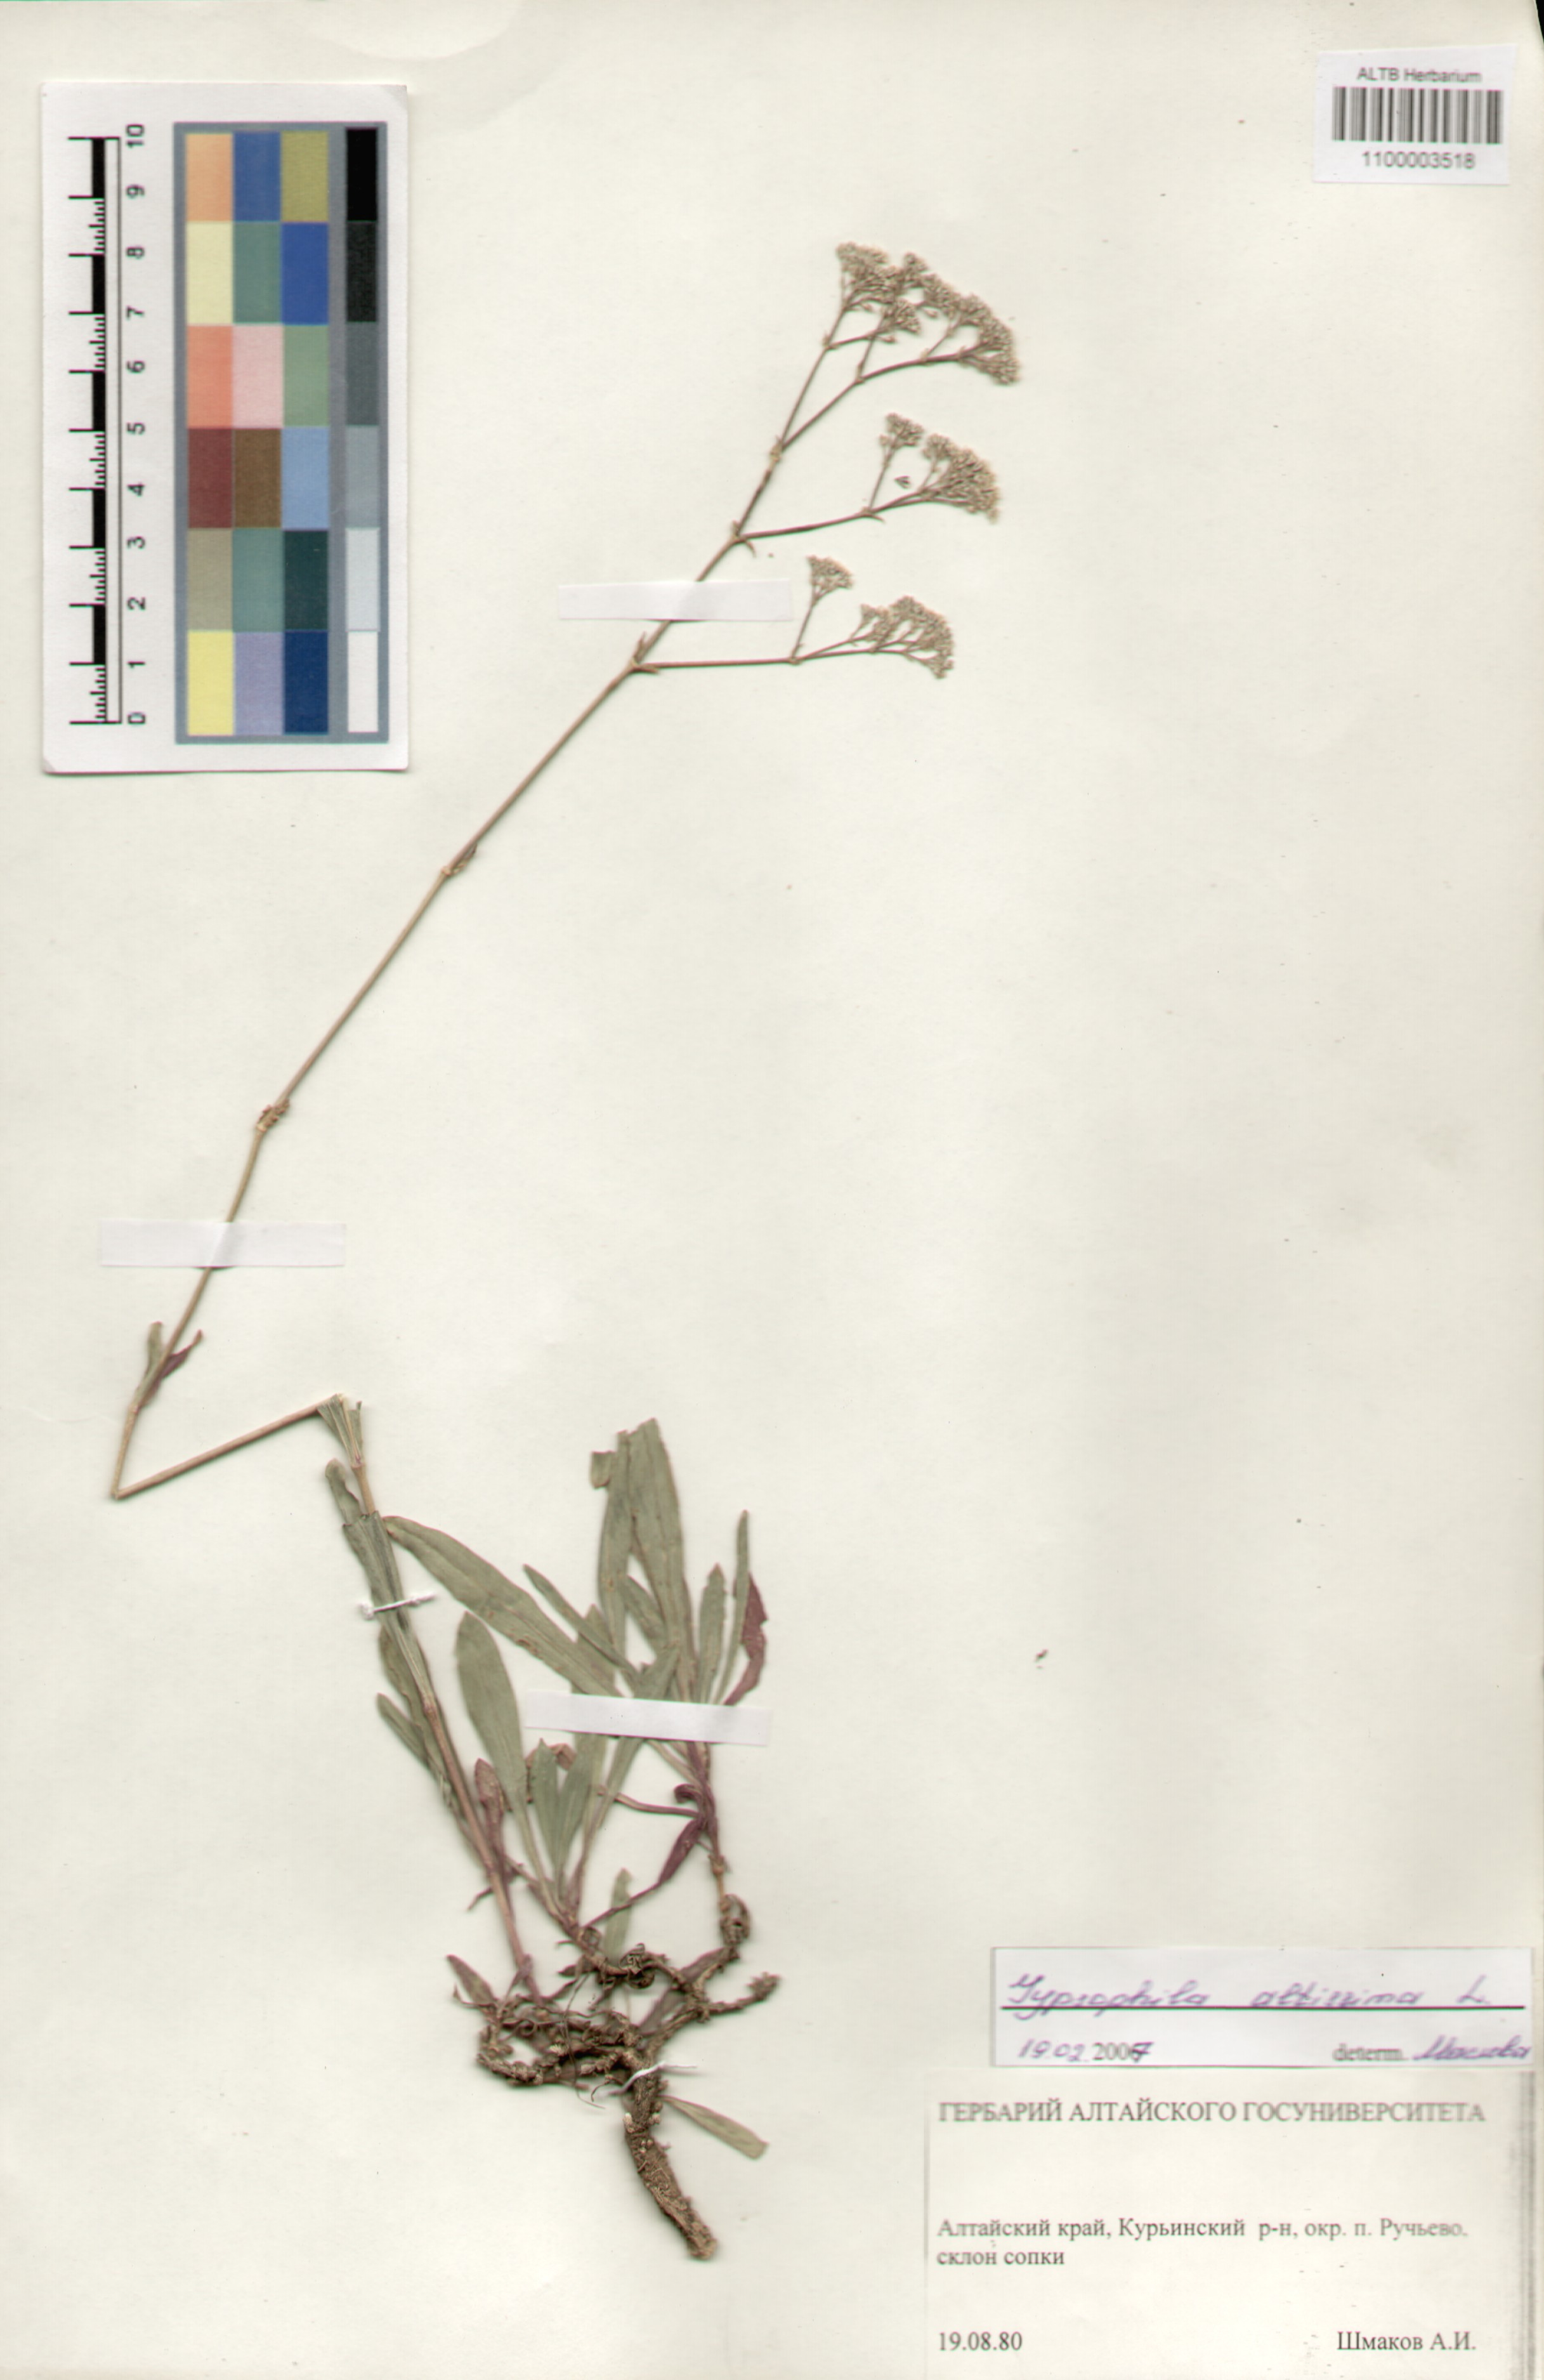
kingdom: Plantae
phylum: Tracheophyta
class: Magnoliopsida
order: Caryophyllales
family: Caryophyllaceae
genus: Gypsophila
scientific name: Gypsophila altissima
